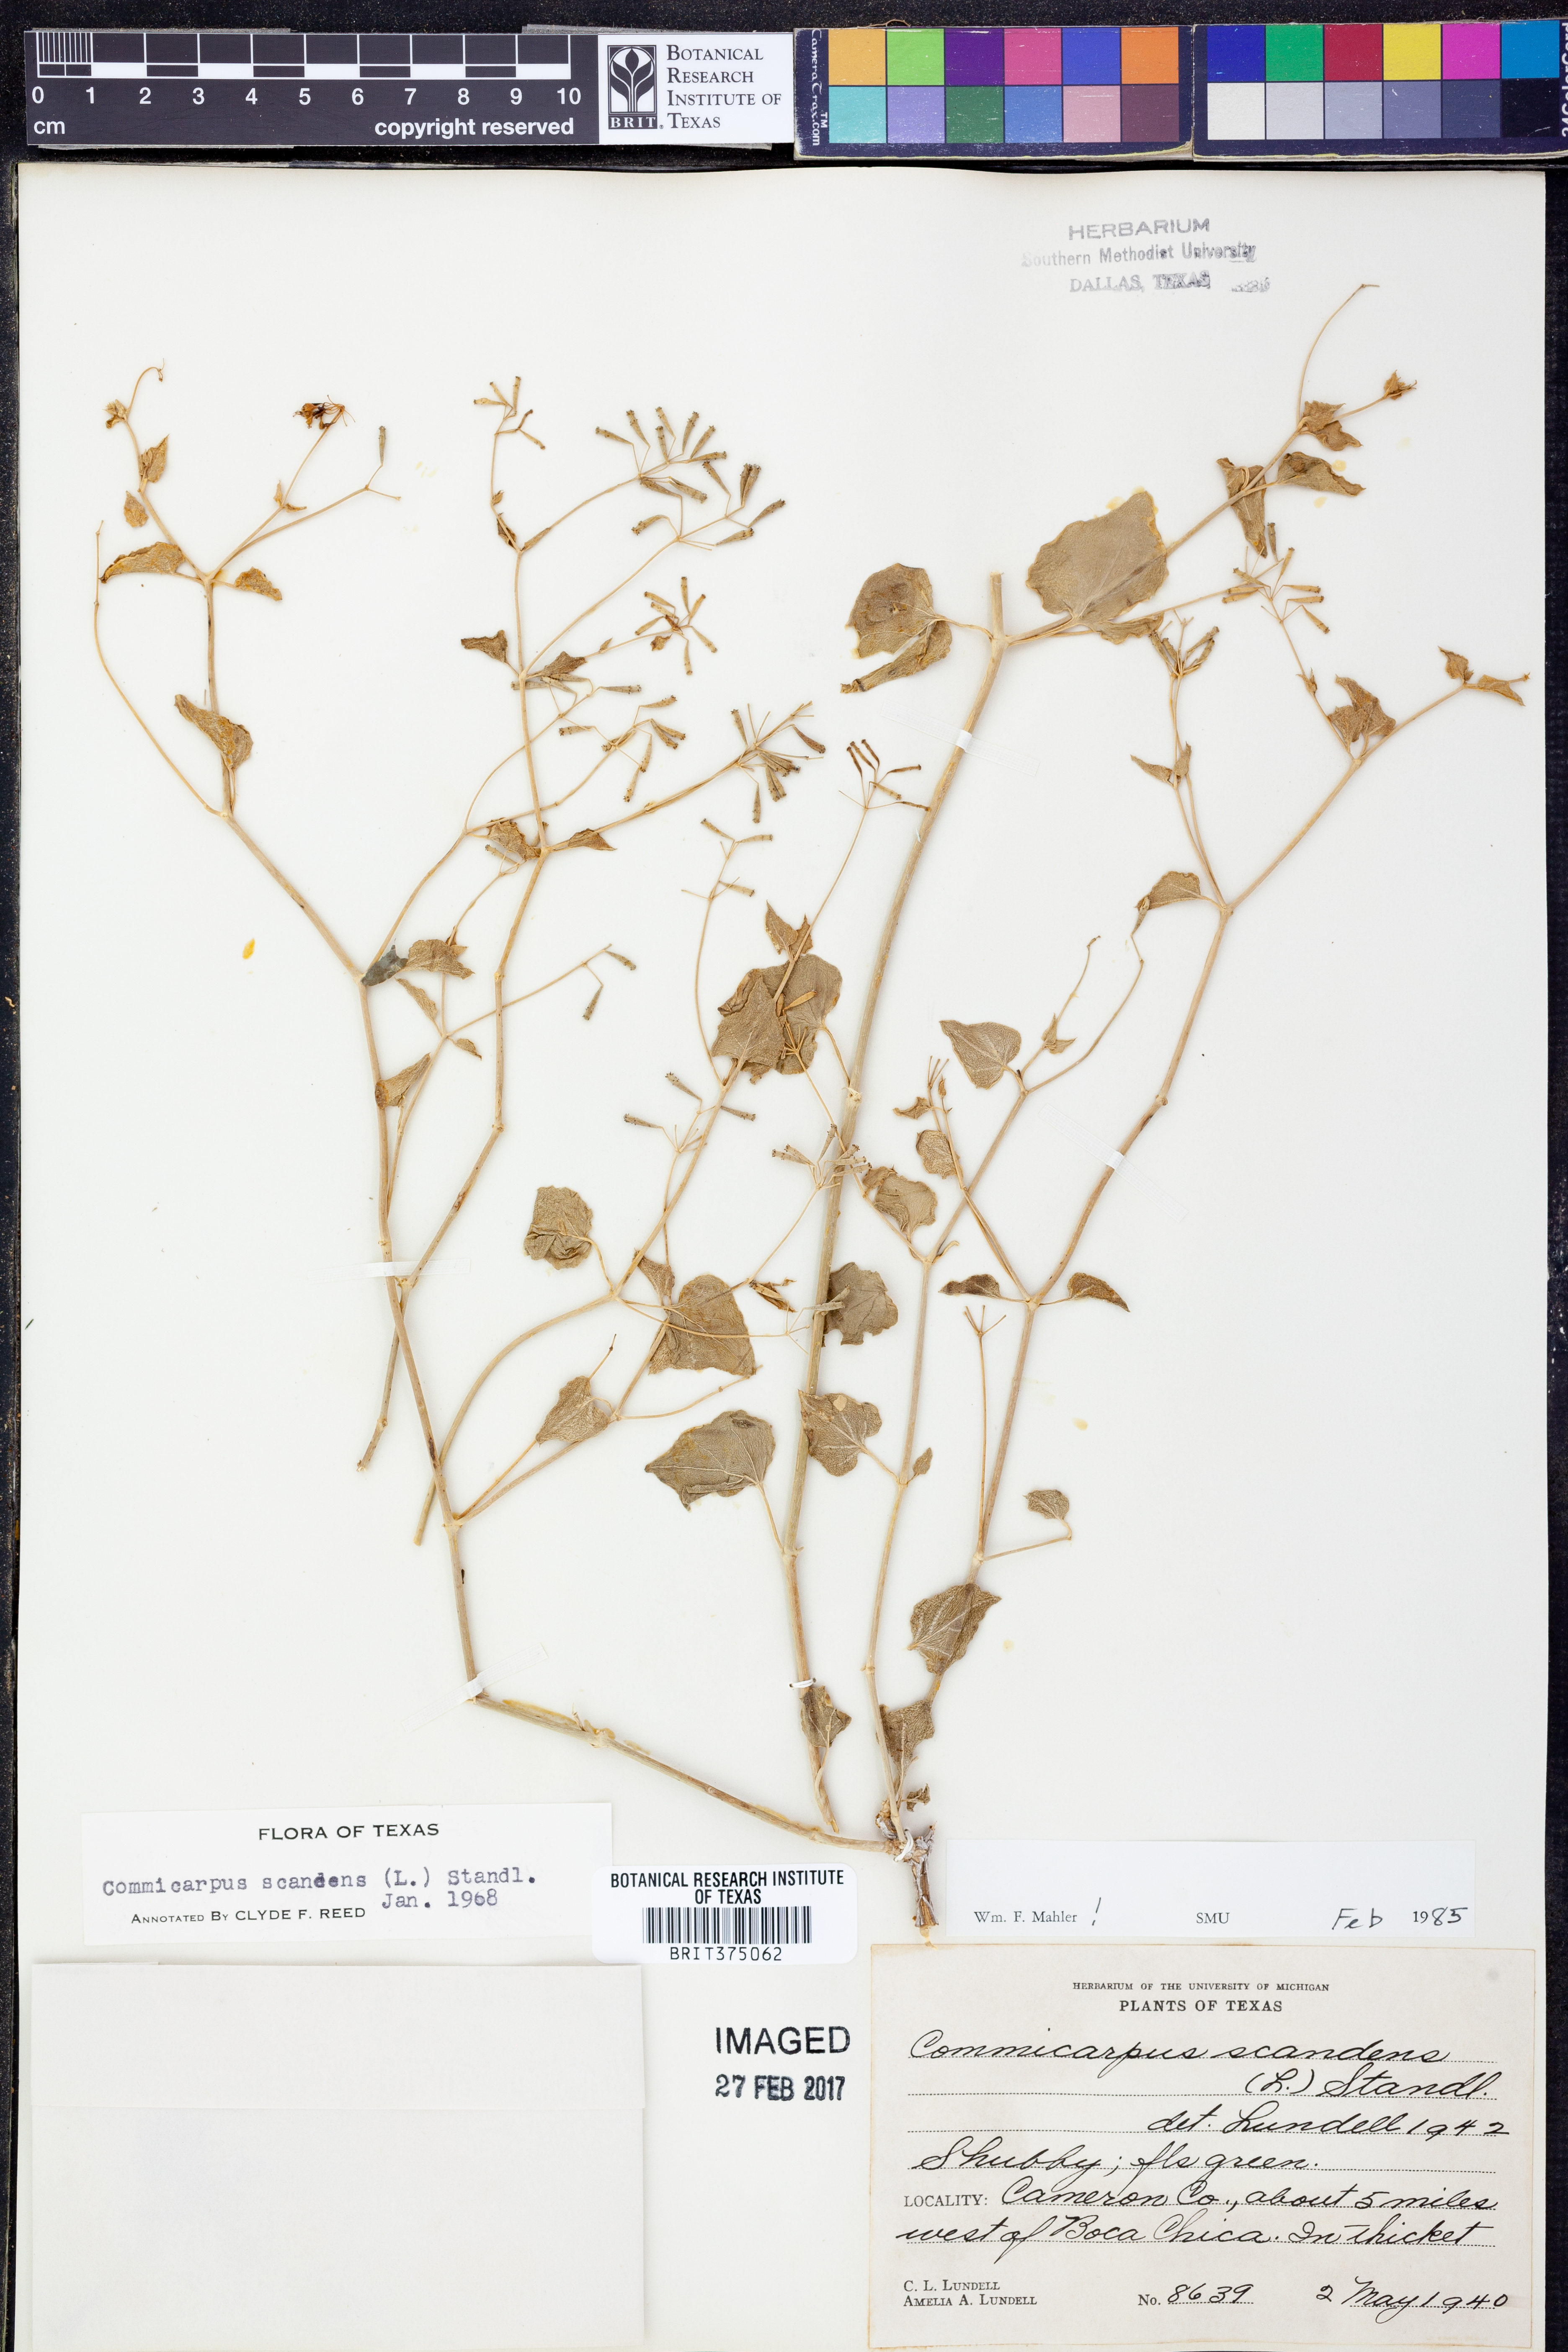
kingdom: Plantae
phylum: Tracheophyta
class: Magnoliopsida
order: Caryophyllales
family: Nyctaginaceae
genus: Commicarpus
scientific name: Commicarpus scandens
